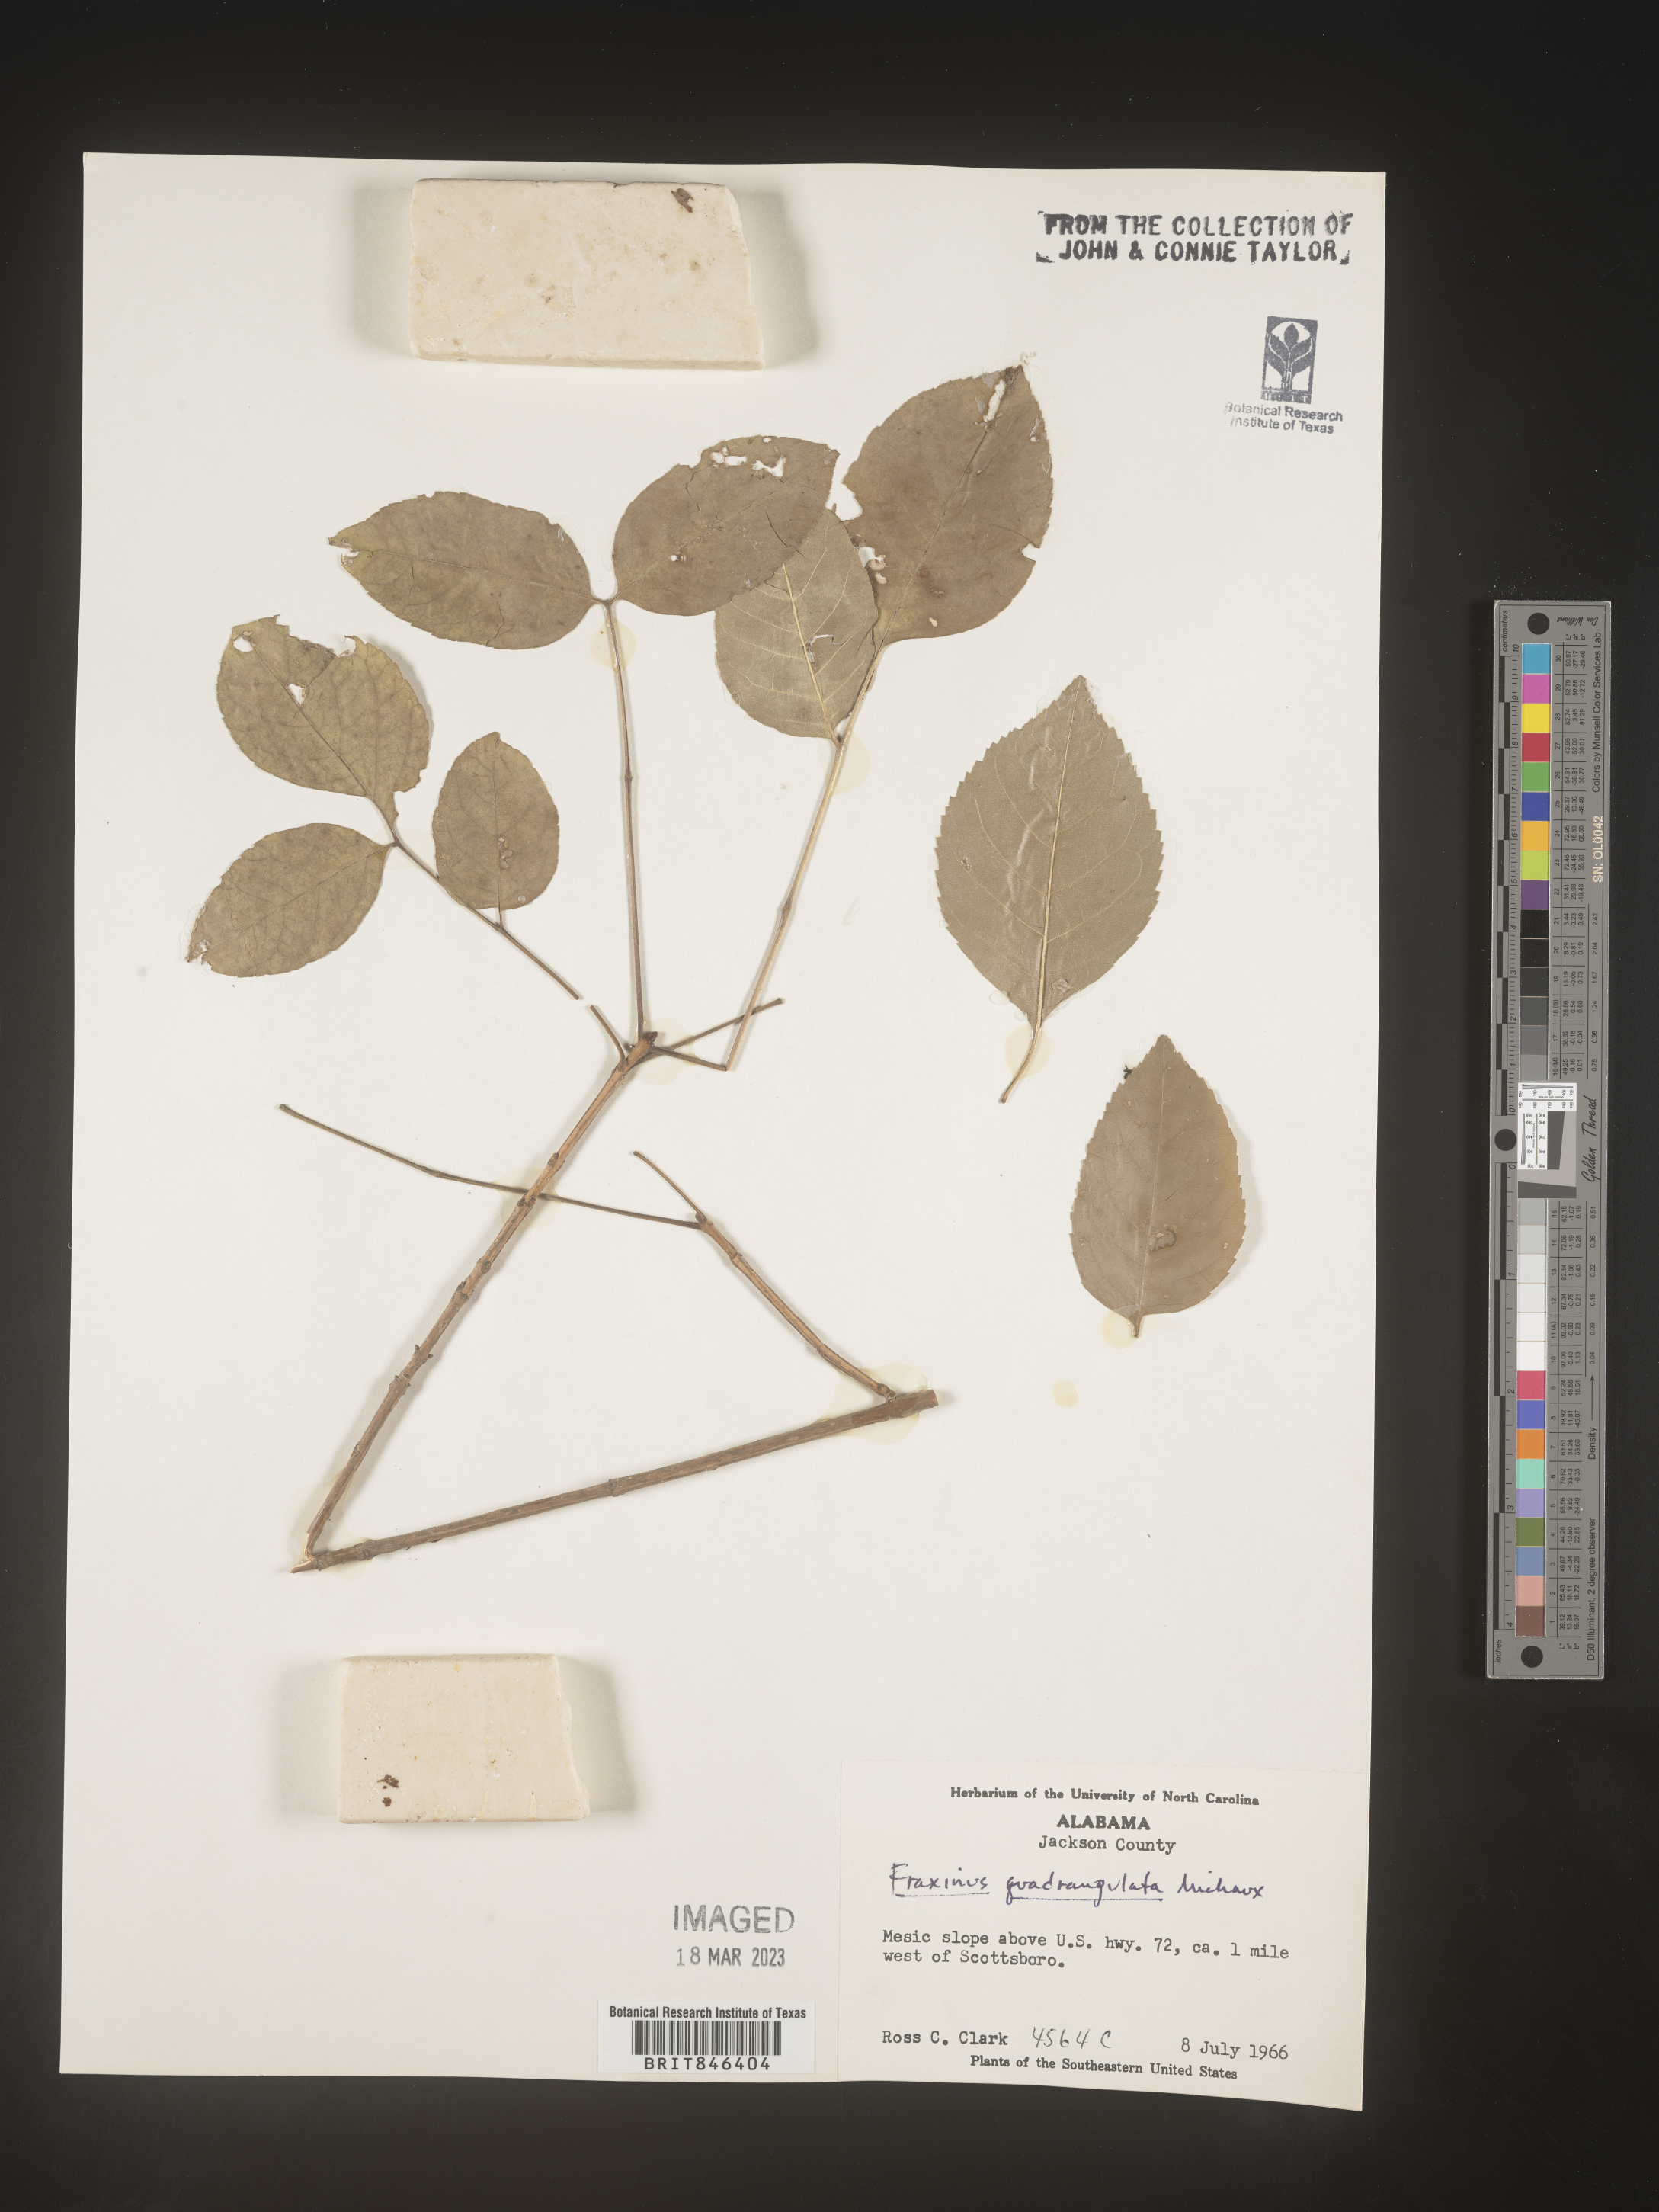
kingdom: Plantae
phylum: Tracheophyta
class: Magnoliopsida
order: Lamiales
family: Oleaceae
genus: Fraxinus
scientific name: Fraxinus quadrangulata
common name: Blue ash
